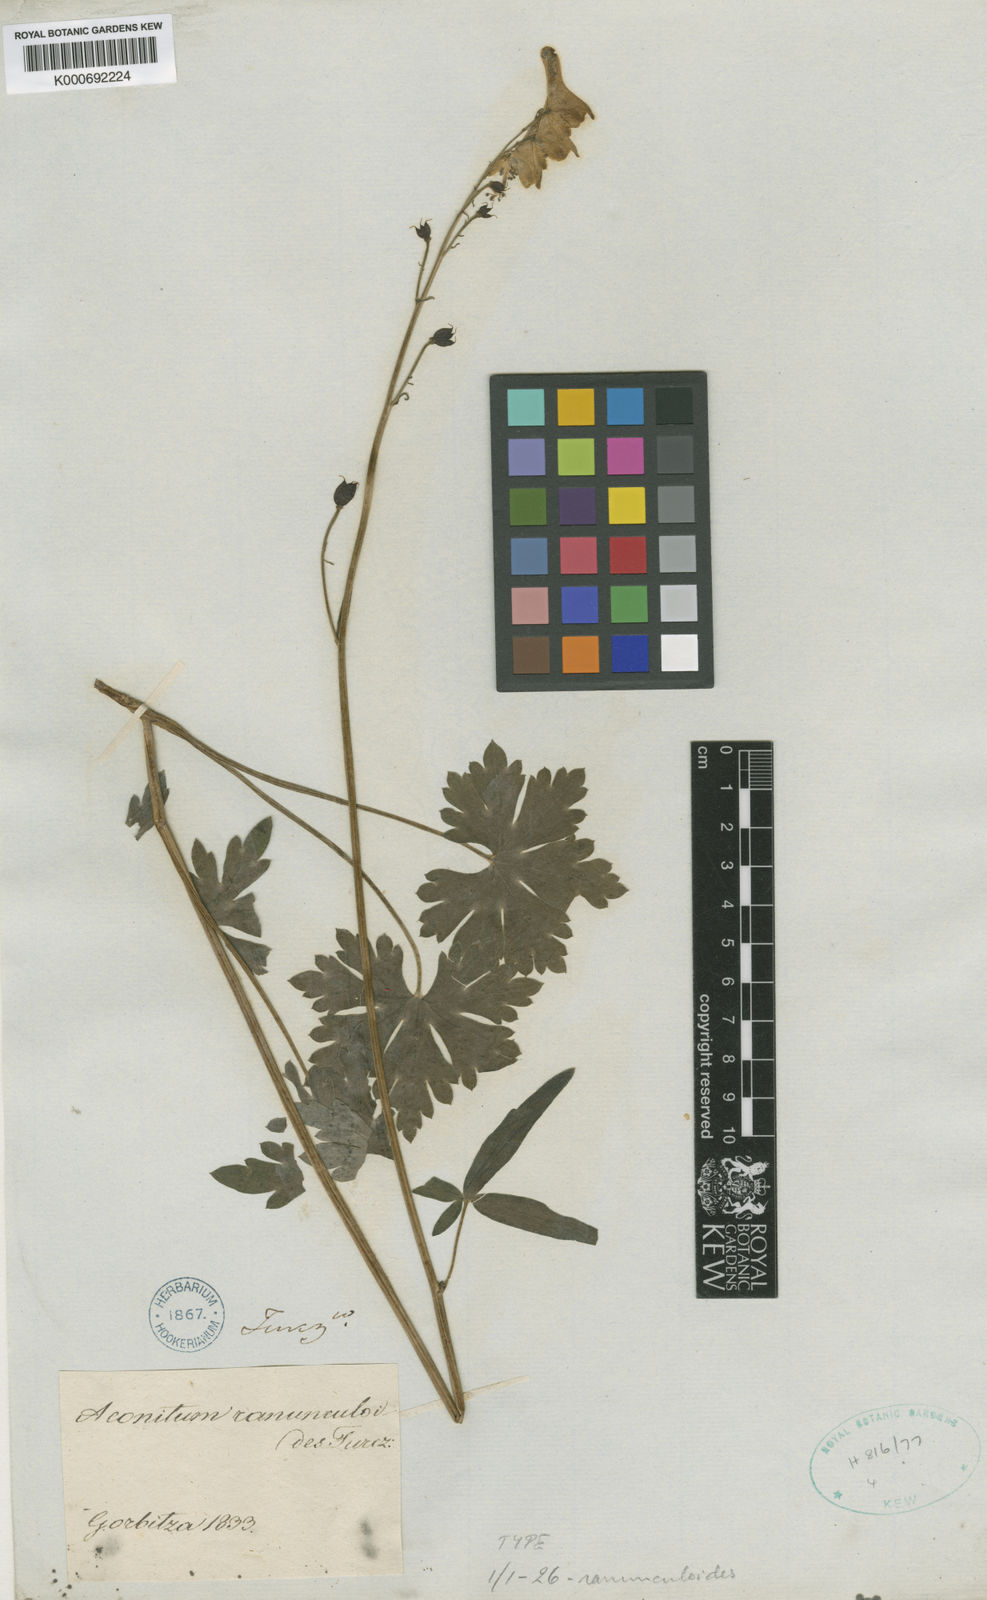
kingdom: Plantae
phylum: Tracheophyta
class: Magnoliopsida
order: Ranunculales
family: Ranunculaceae
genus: Aconitum
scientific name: Aconitum ranunculoides
